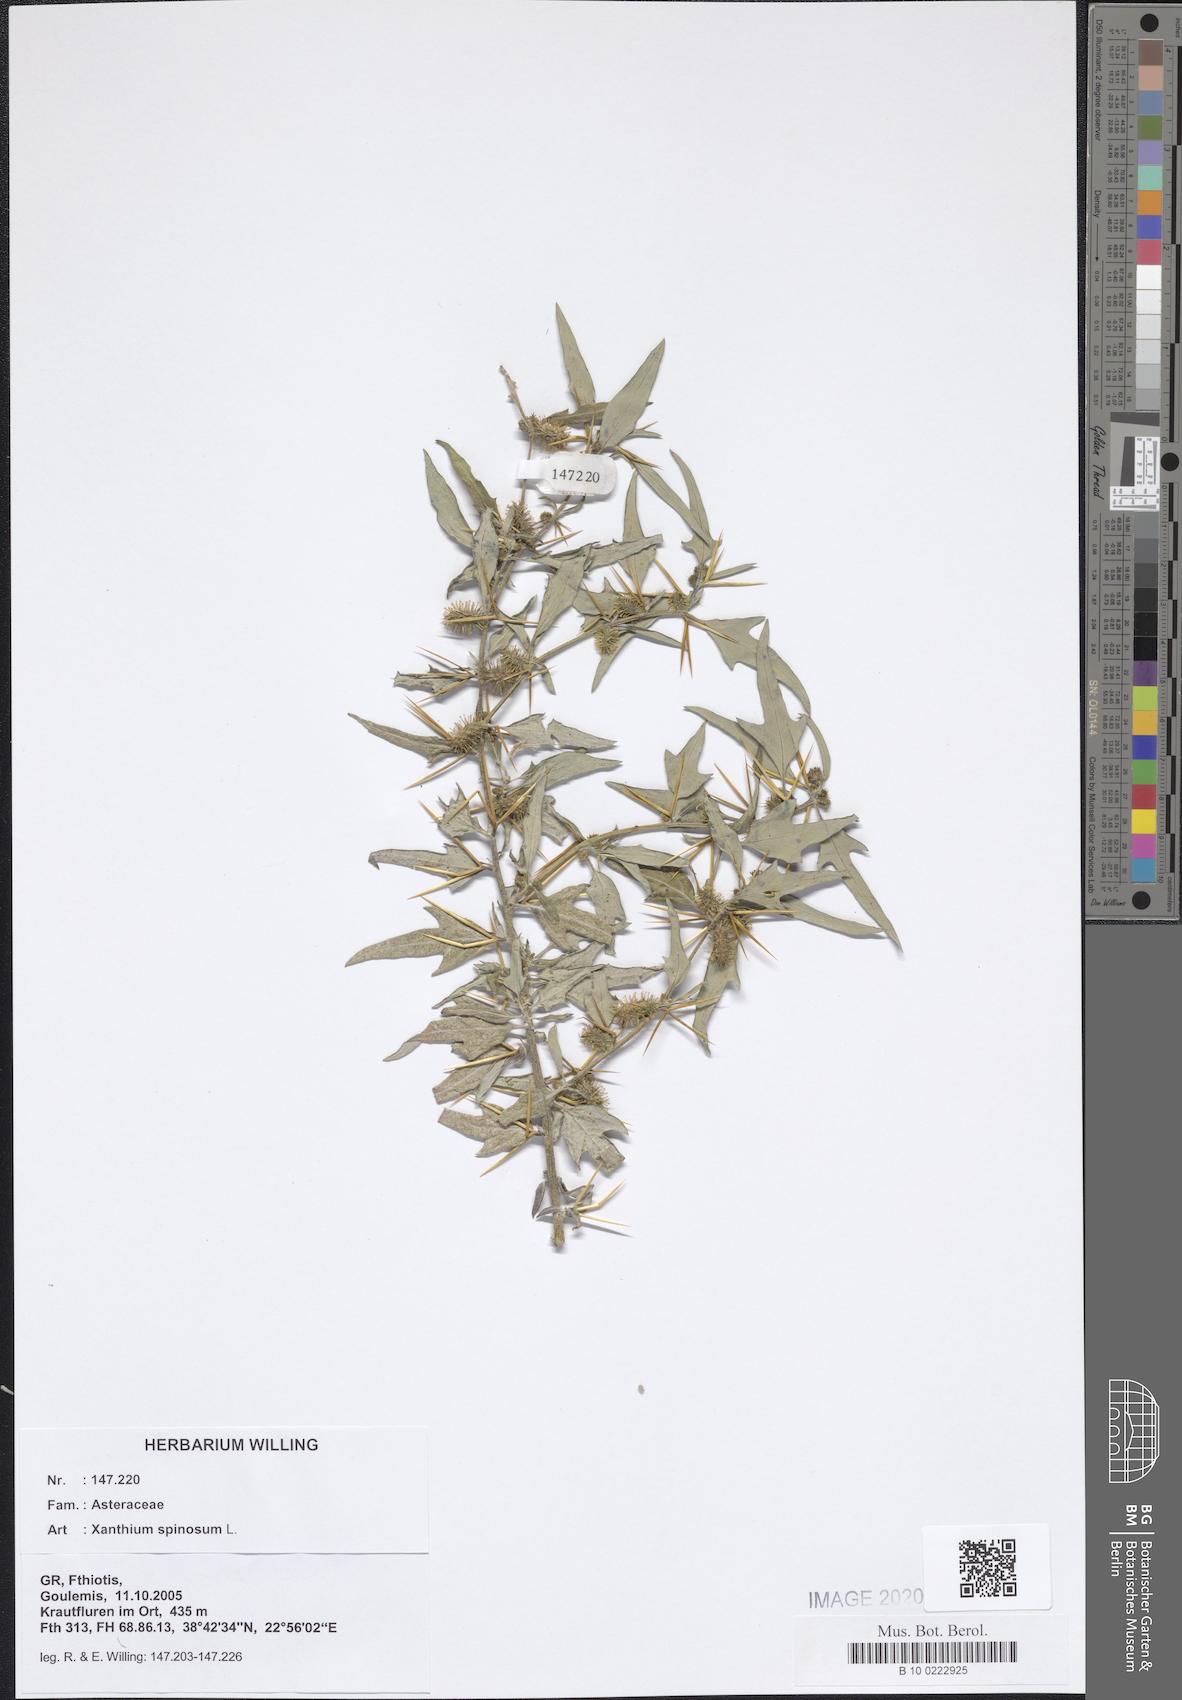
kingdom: Plantae
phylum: Tracheophyta
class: Magnoliopsida
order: Asterales
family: Asteraceae
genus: Xanthium
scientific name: Xanthium spinosum
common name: Spiny cocklebur
